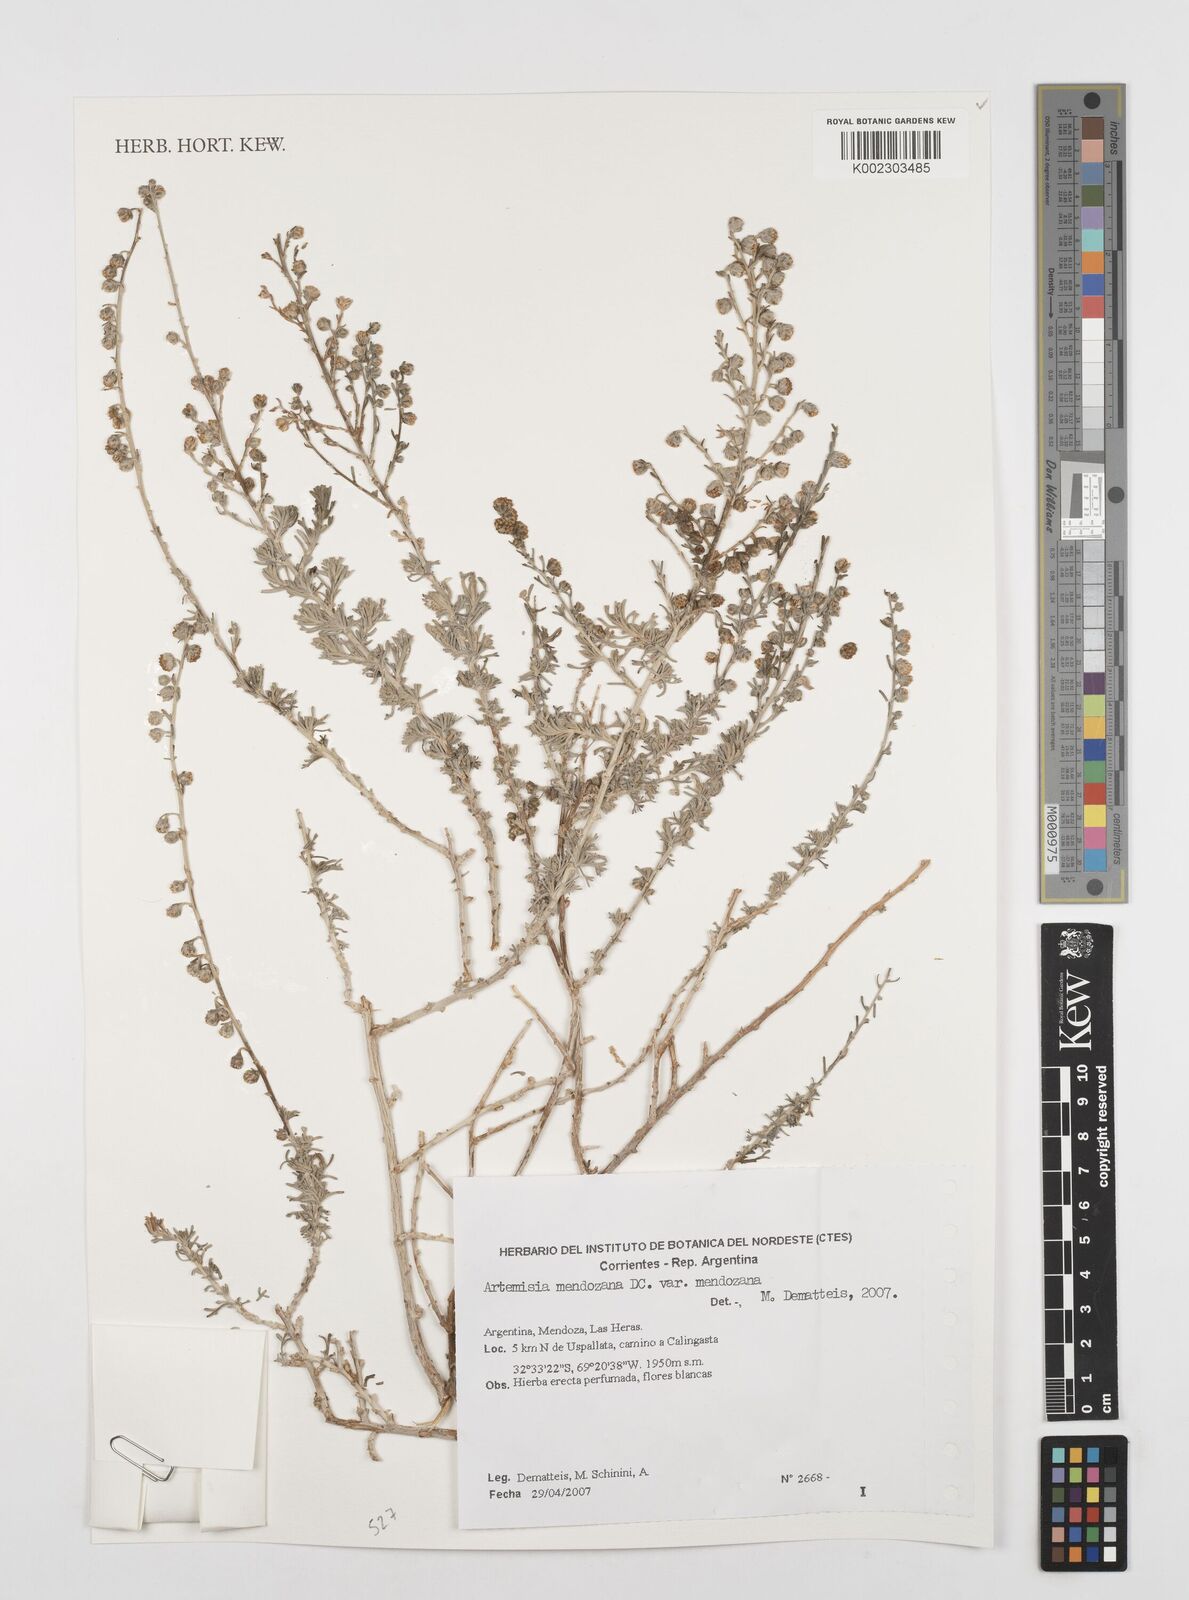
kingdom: Plantae
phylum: Tracheophyta
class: Magnoliopsida
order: Asterales
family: Asteraceae
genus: Artemisia
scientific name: Artemisia mendozana
